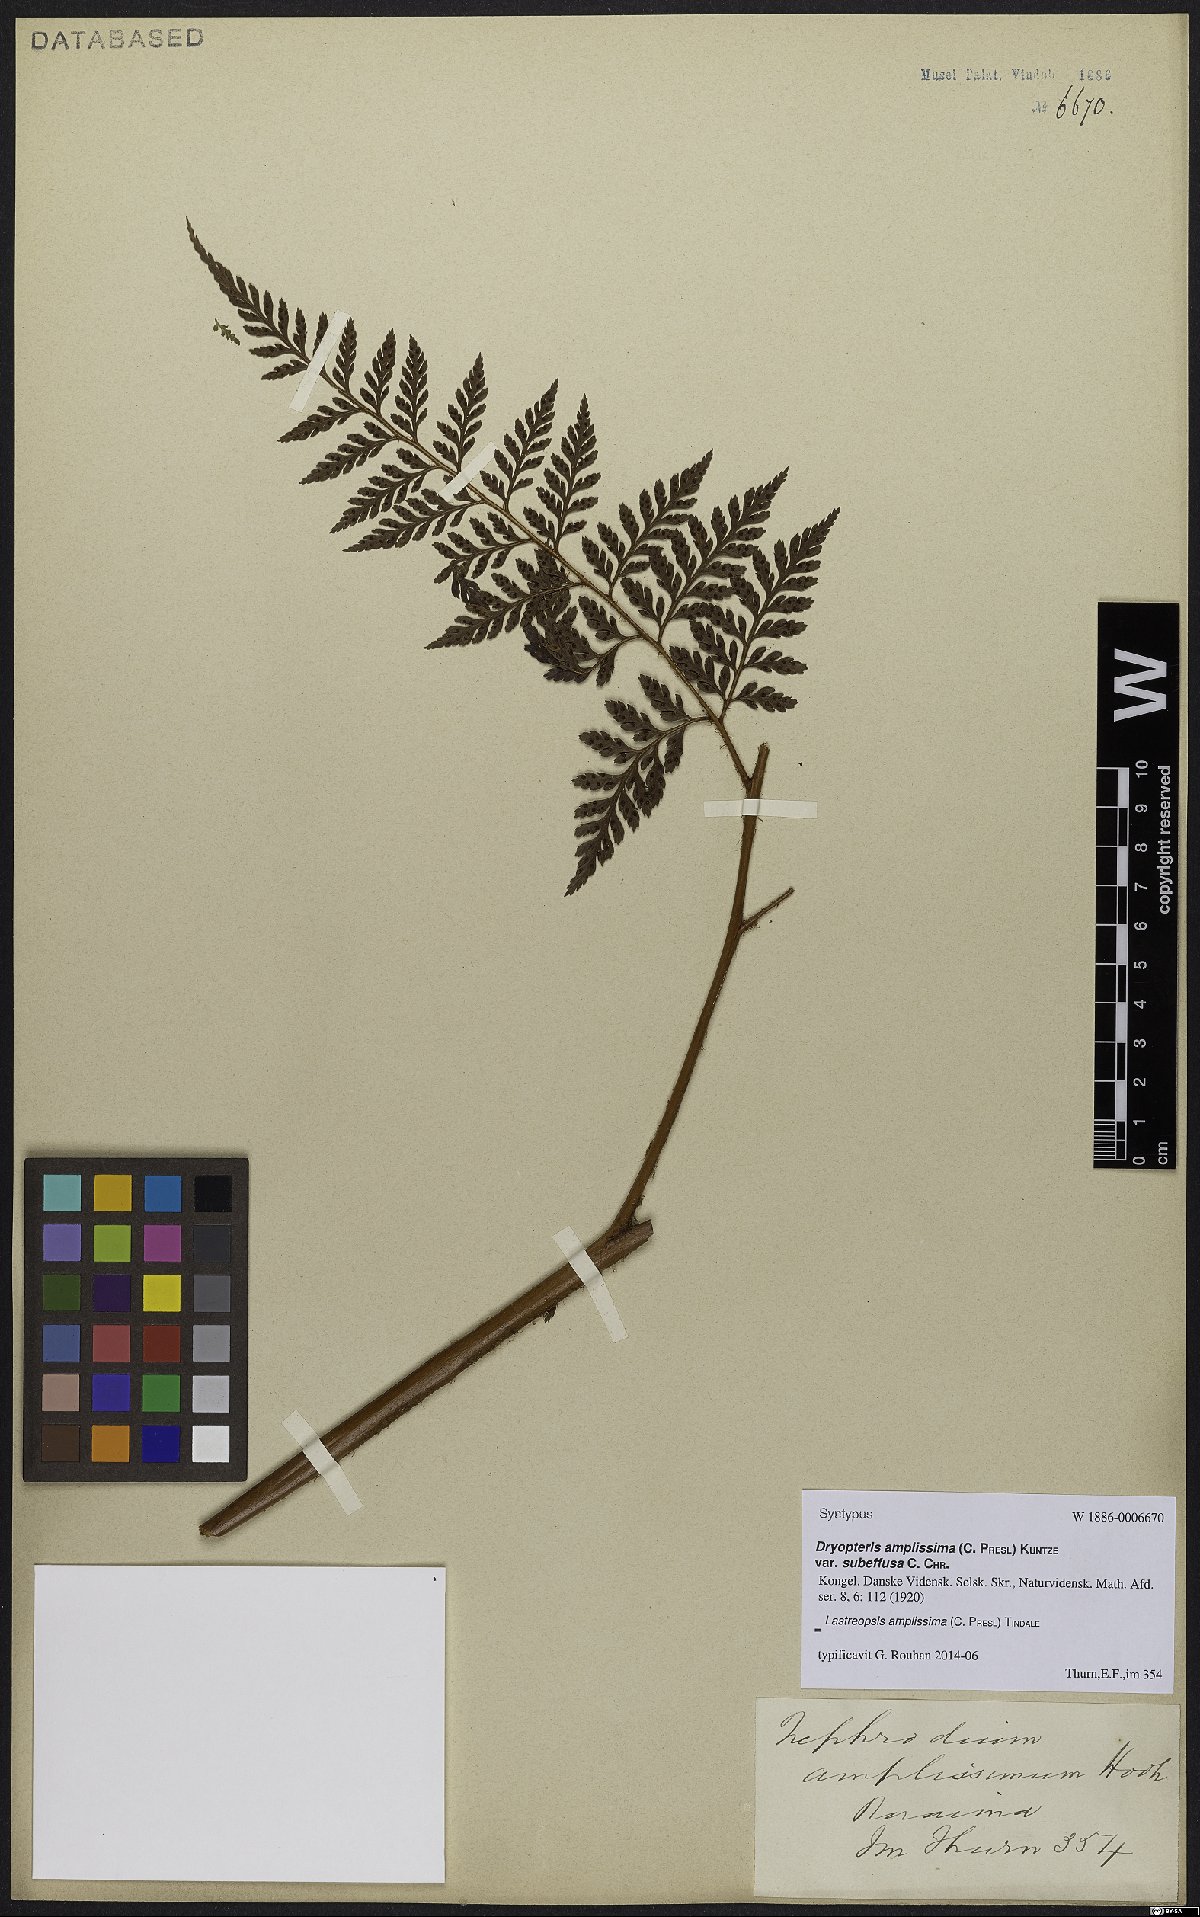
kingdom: Plantae
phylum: Tracheophyta
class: Polypodiopsida
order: Polypodiales
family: Dryopteridaceae
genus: Lastreopsis
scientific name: Lastreopsis amplissima
